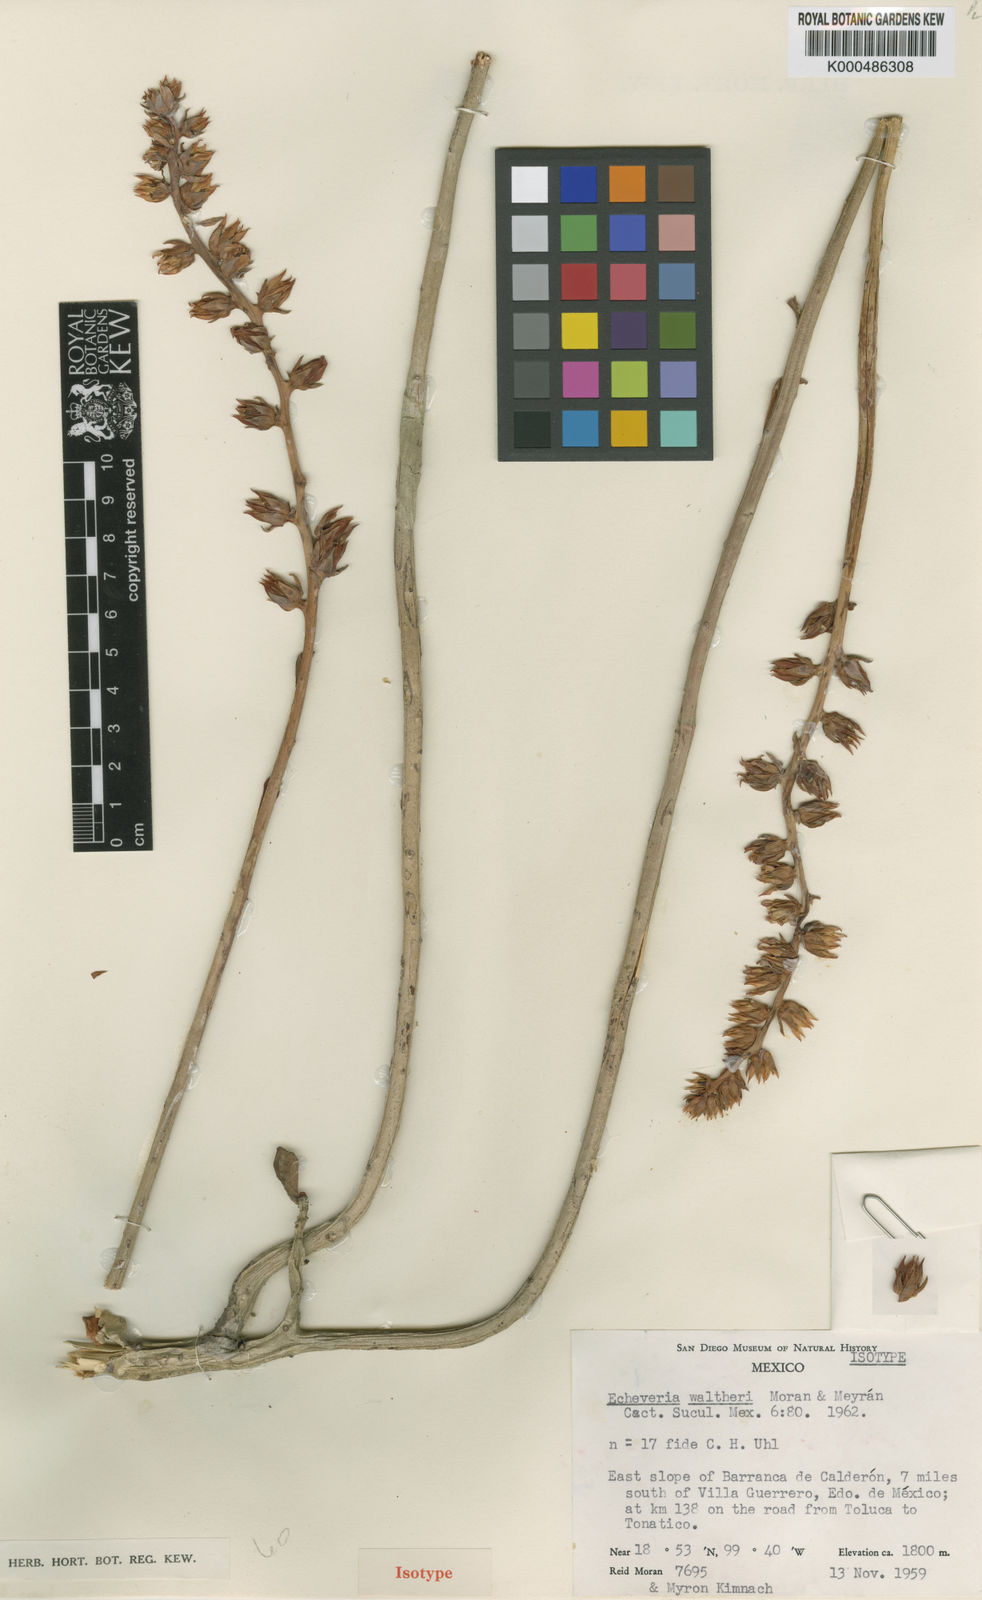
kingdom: Plantae
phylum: Tracheophyta
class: Magnoliopsida
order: Saxifragales
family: Crassulaceae
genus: Echeveria
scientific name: Echeveria
